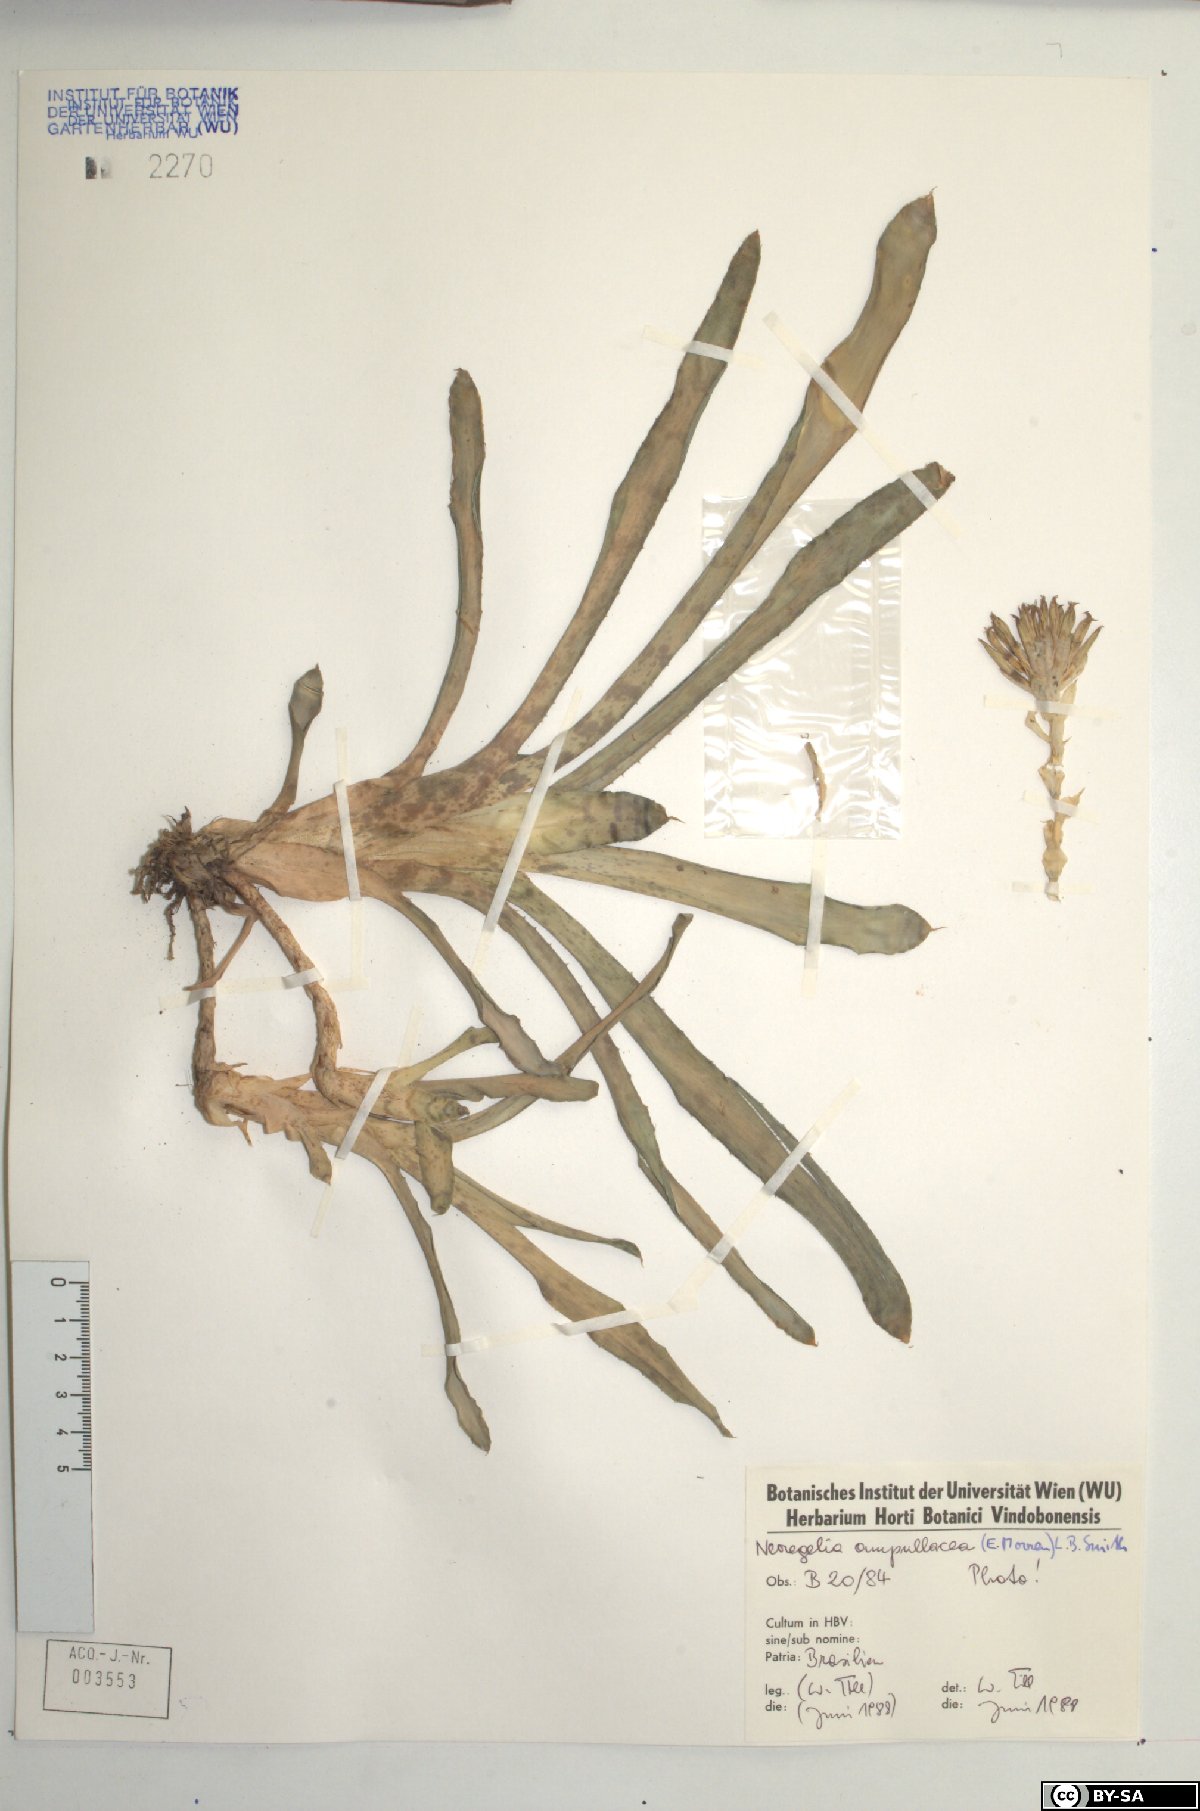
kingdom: Plantae
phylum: Tracheophyta
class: Liliopsida
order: Poales
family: Bromeliaceae
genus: Neoregelia
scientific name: Neoregelia ampullacea
